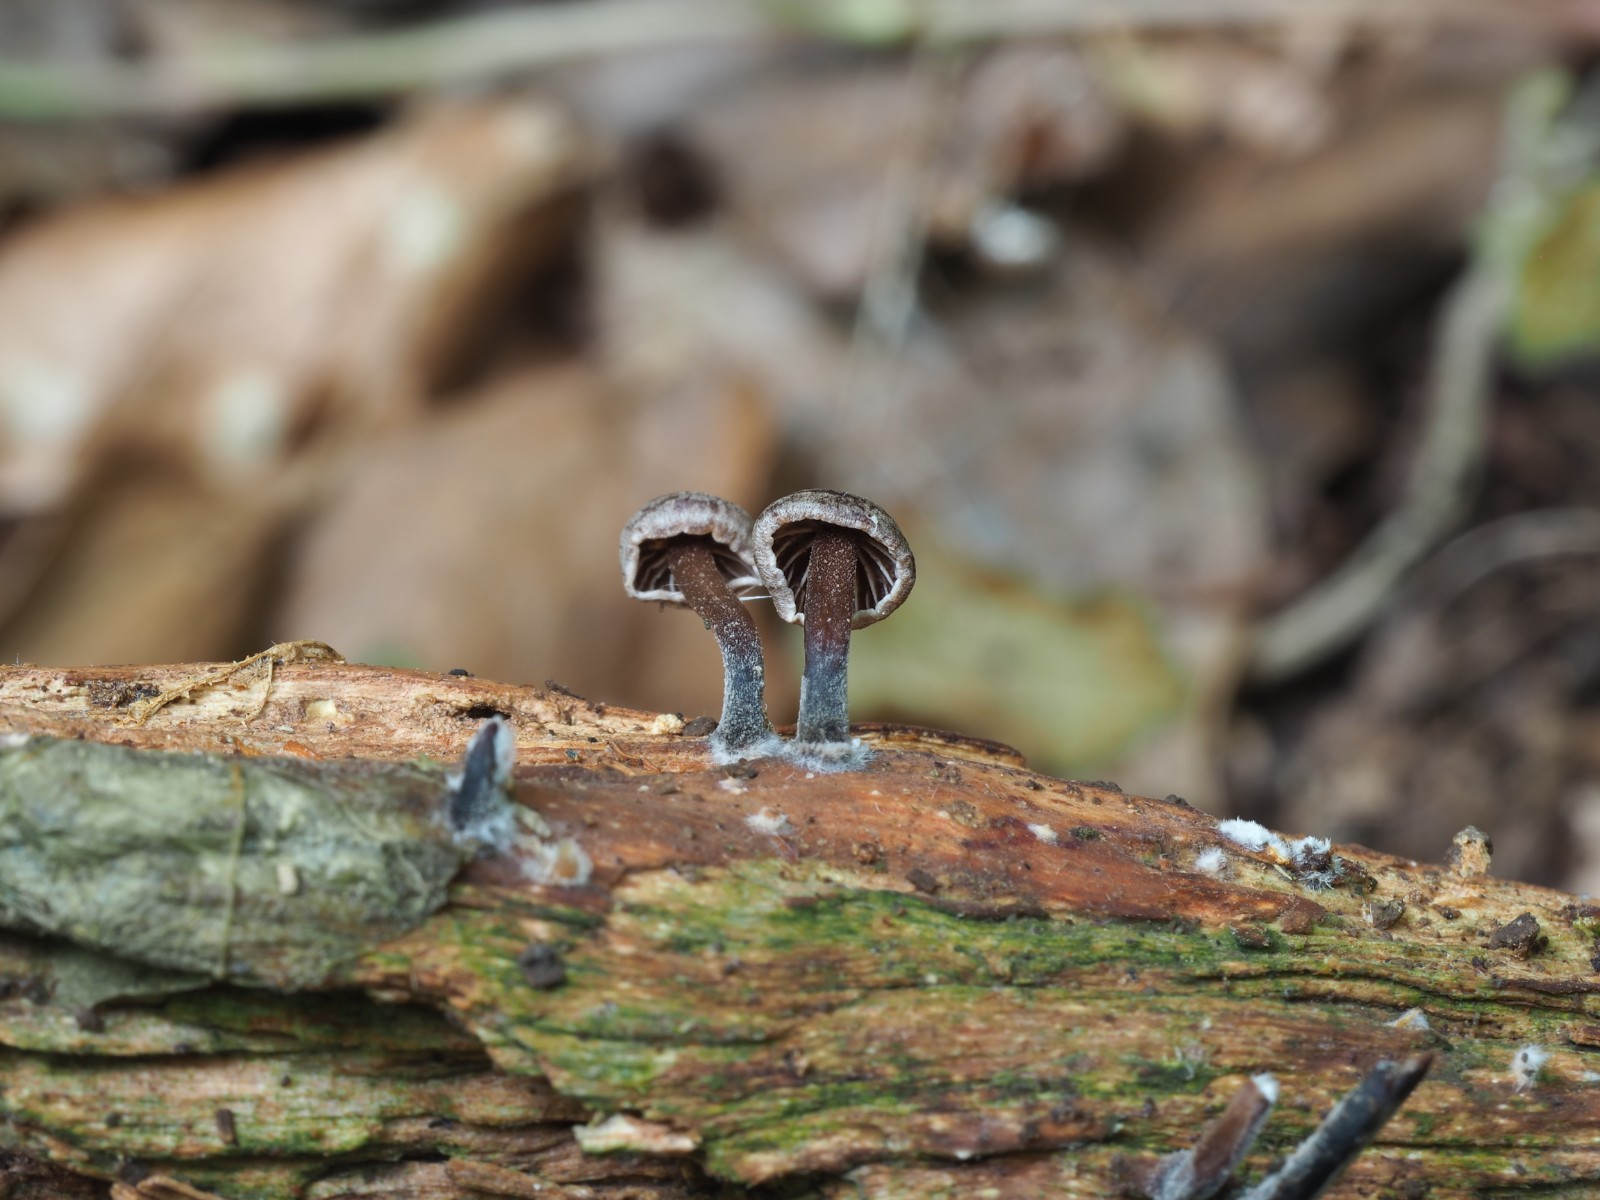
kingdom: Fungi
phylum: Basidiomycota
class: Agaricomycetes
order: Agaricales
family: Omphalotaceae
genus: Gymnopus
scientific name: Gymnopus foetidus
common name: stinkende fladhat
